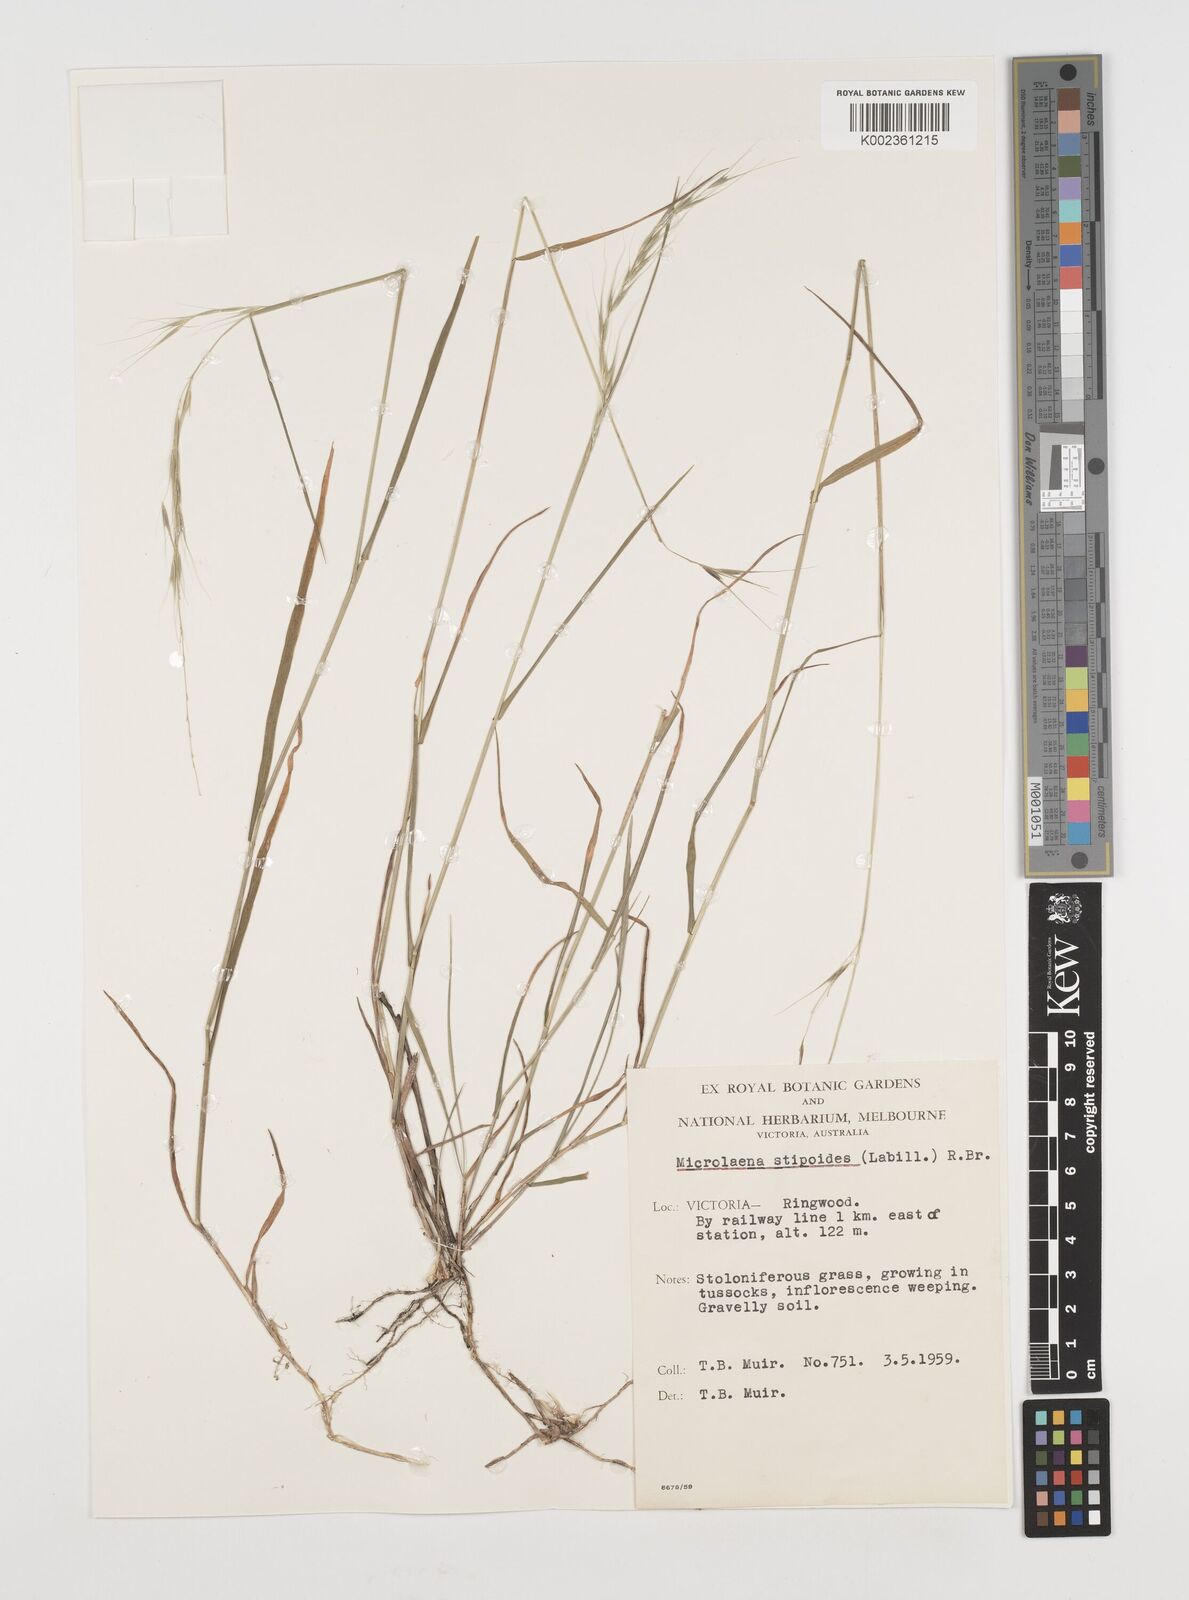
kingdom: Plantae
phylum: Tracheophyta
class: Liliopsida
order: Poales
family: Poaceae
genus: Microlaena
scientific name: Microlaena stipoides
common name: Meadow ricegrass
